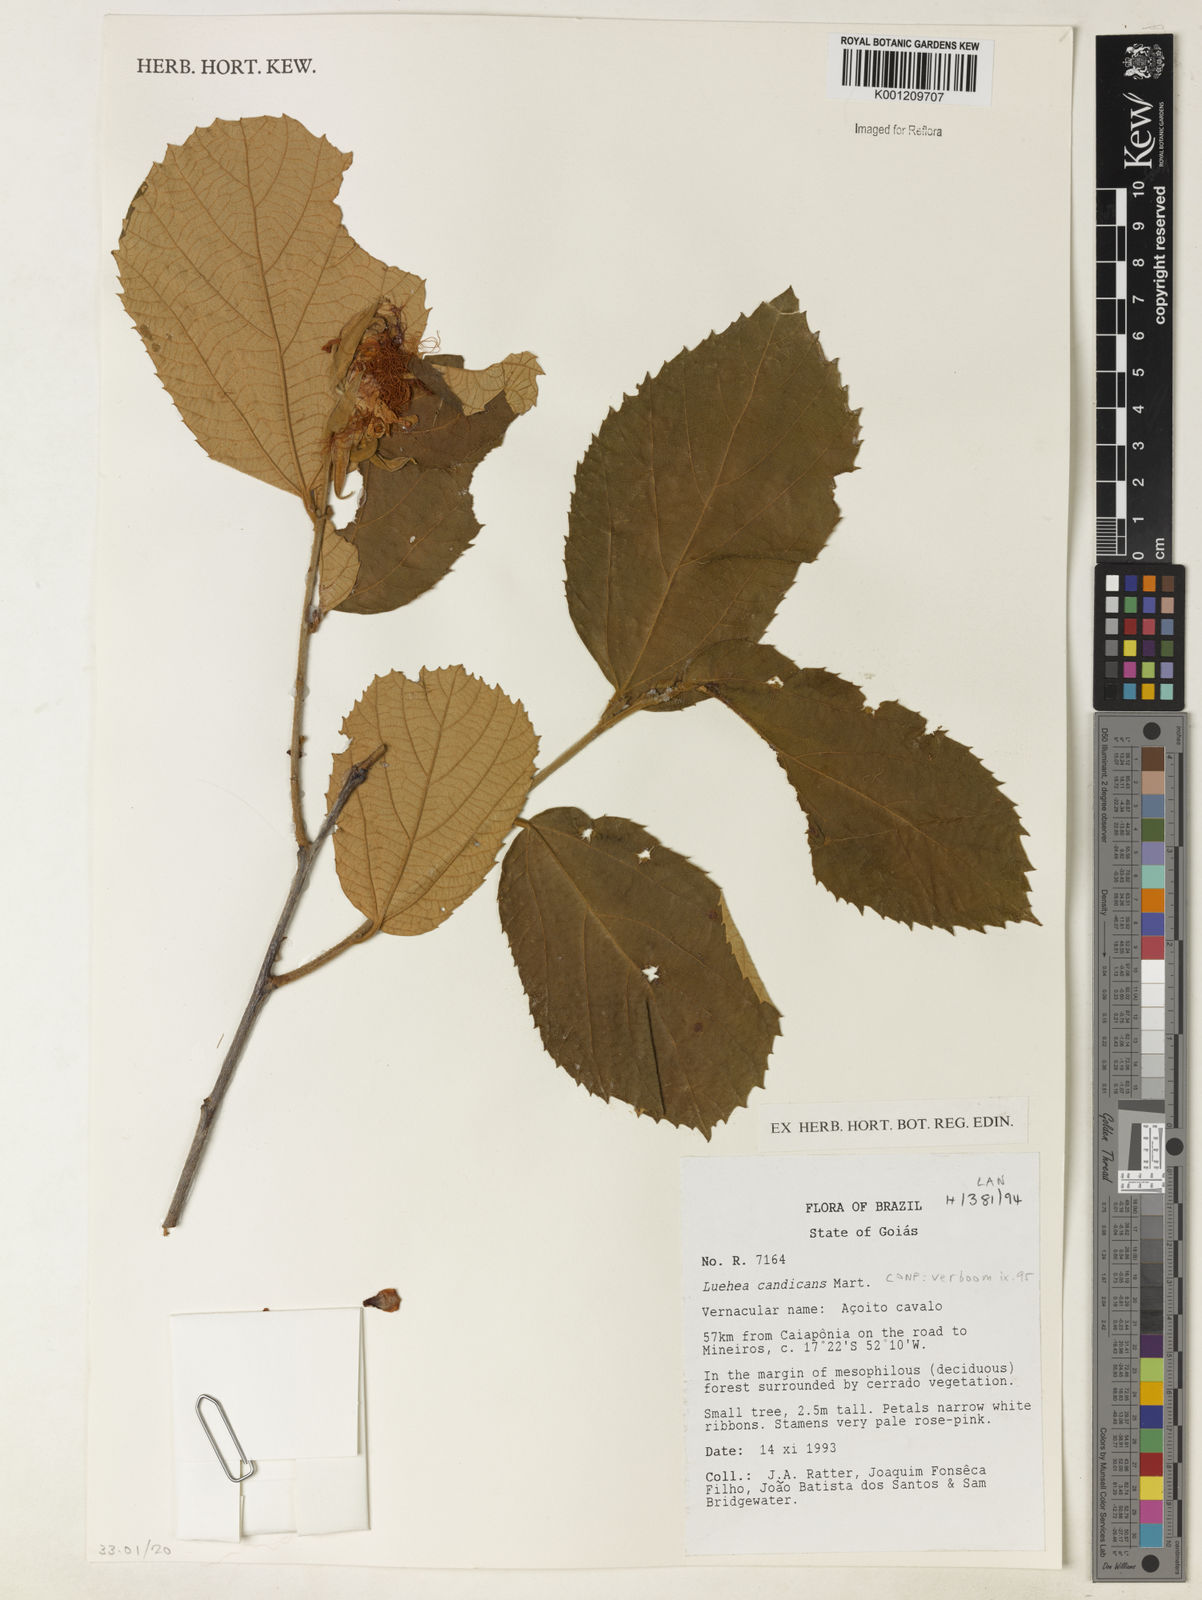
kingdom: Plantae
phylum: Tracheophyta
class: Magnoliopsida
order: Malvales
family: Malvaceae
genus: Luehea
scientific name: Luehea candicans
